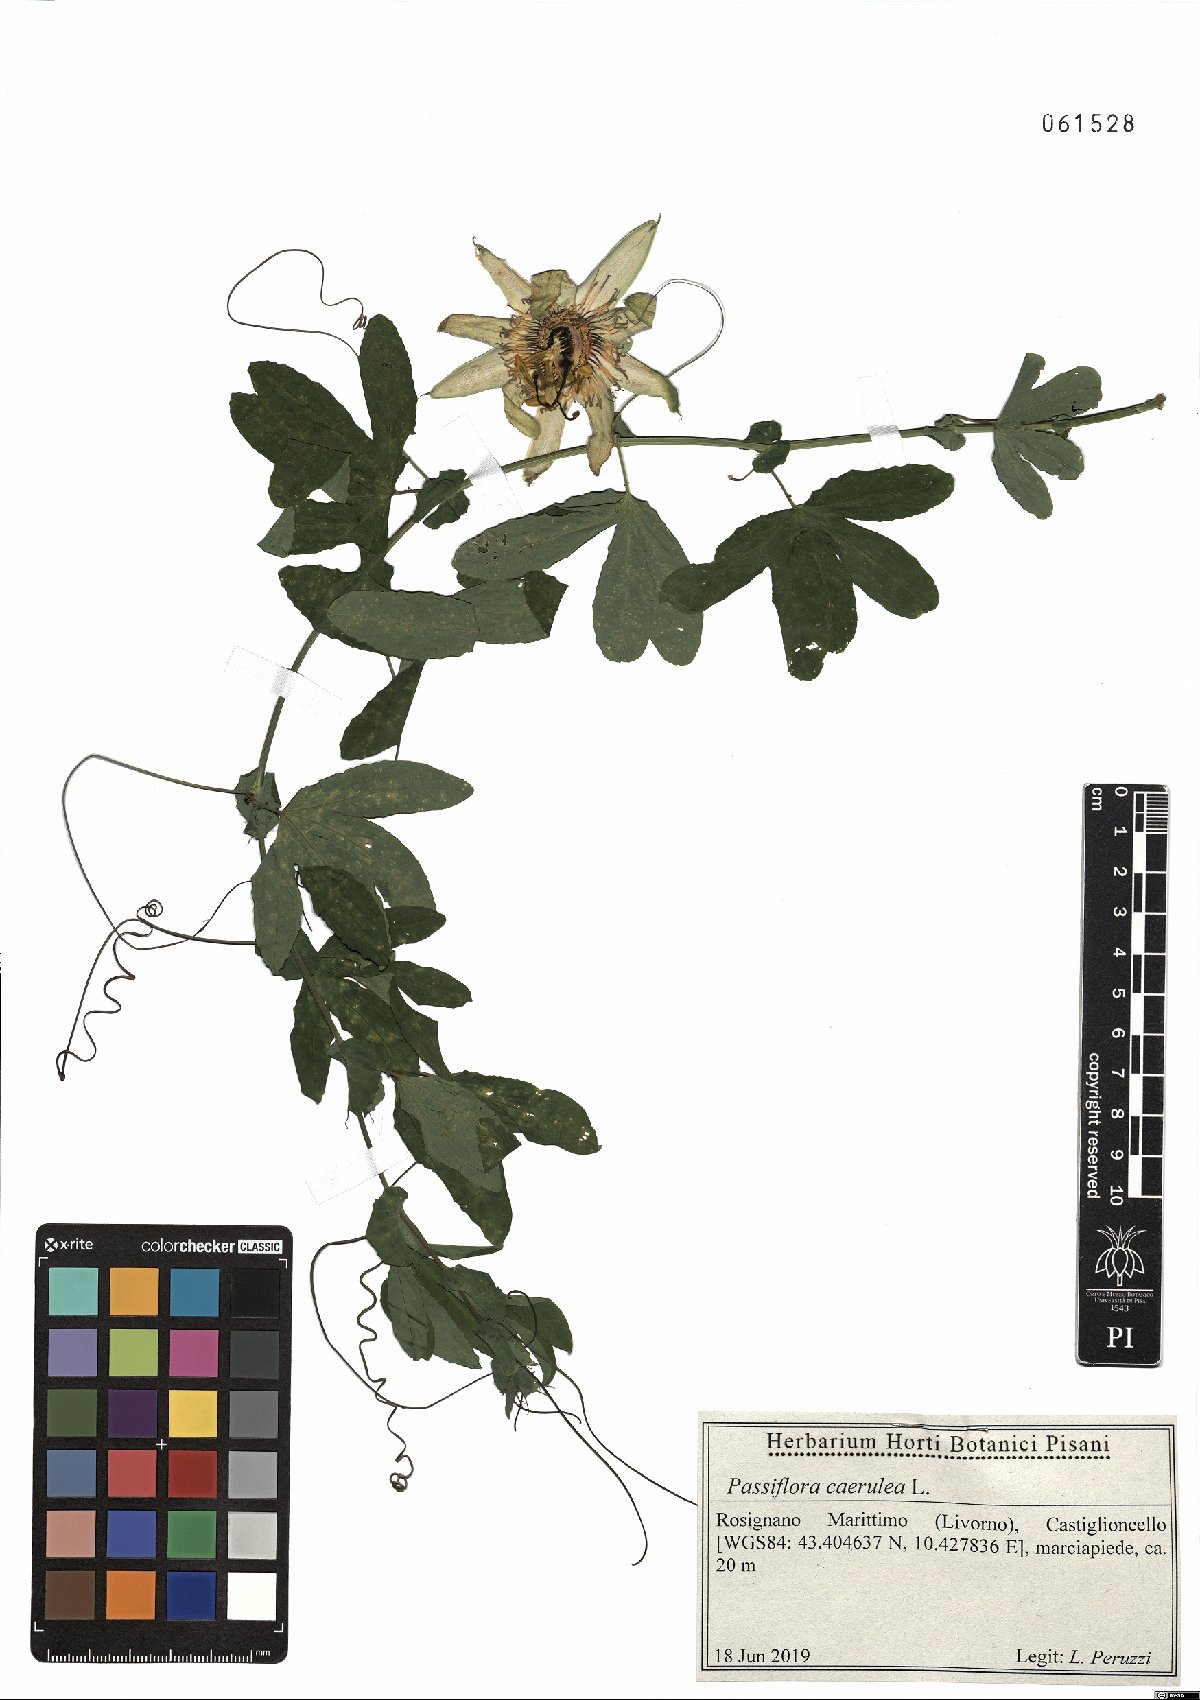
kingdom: Plantae
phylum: Tracheophyta
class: Magnoliopsida
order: Malpighiales
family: Passifloraceae
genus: Passiflora
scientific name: Passiflora caerulea
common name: Blue passionflower
